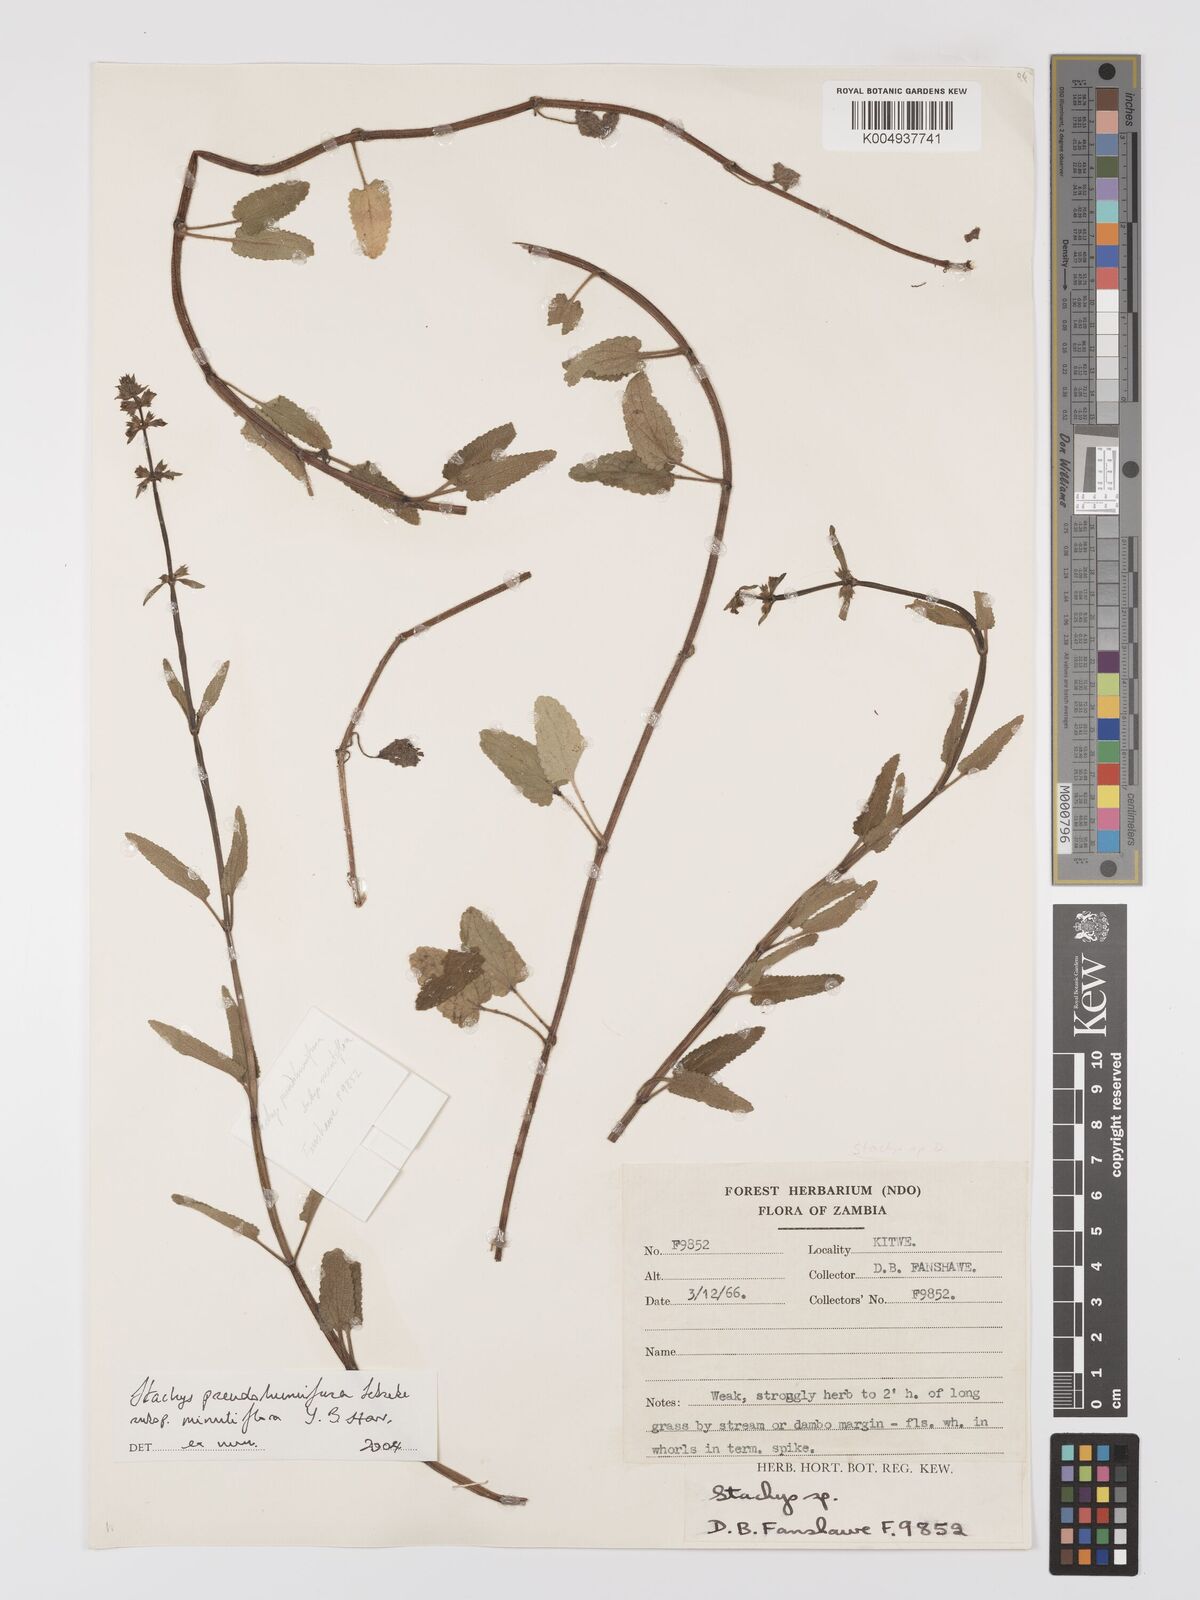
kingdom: Plantae
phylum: Tracheophyta
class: Magnoliopsida
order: Lamiales
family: Lamiaceae
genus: Stachys
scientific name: Stachys pseudohumifusa
